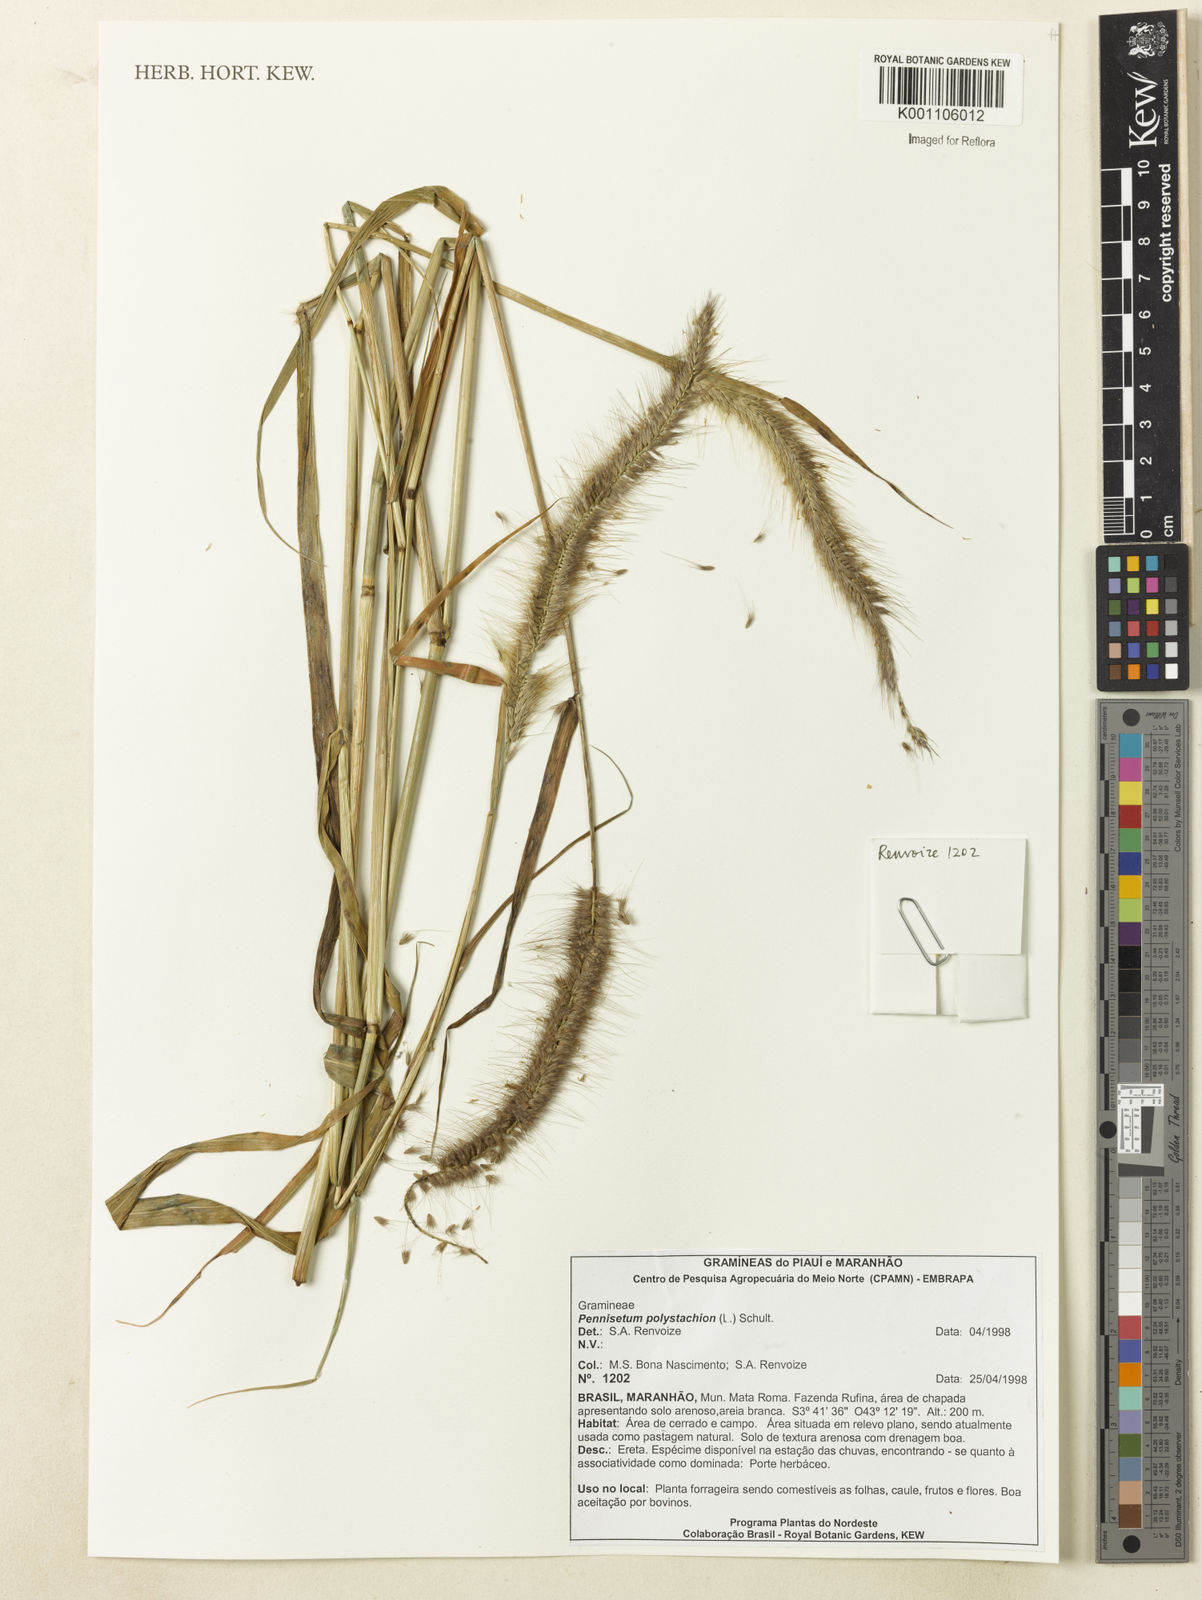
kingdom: Plantae
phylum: Tracheophyta
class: Liliopsida
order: Poales
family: Poaceae
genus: Setaria
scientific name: Setaria parviflora
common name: Knotroot bristle-grass
